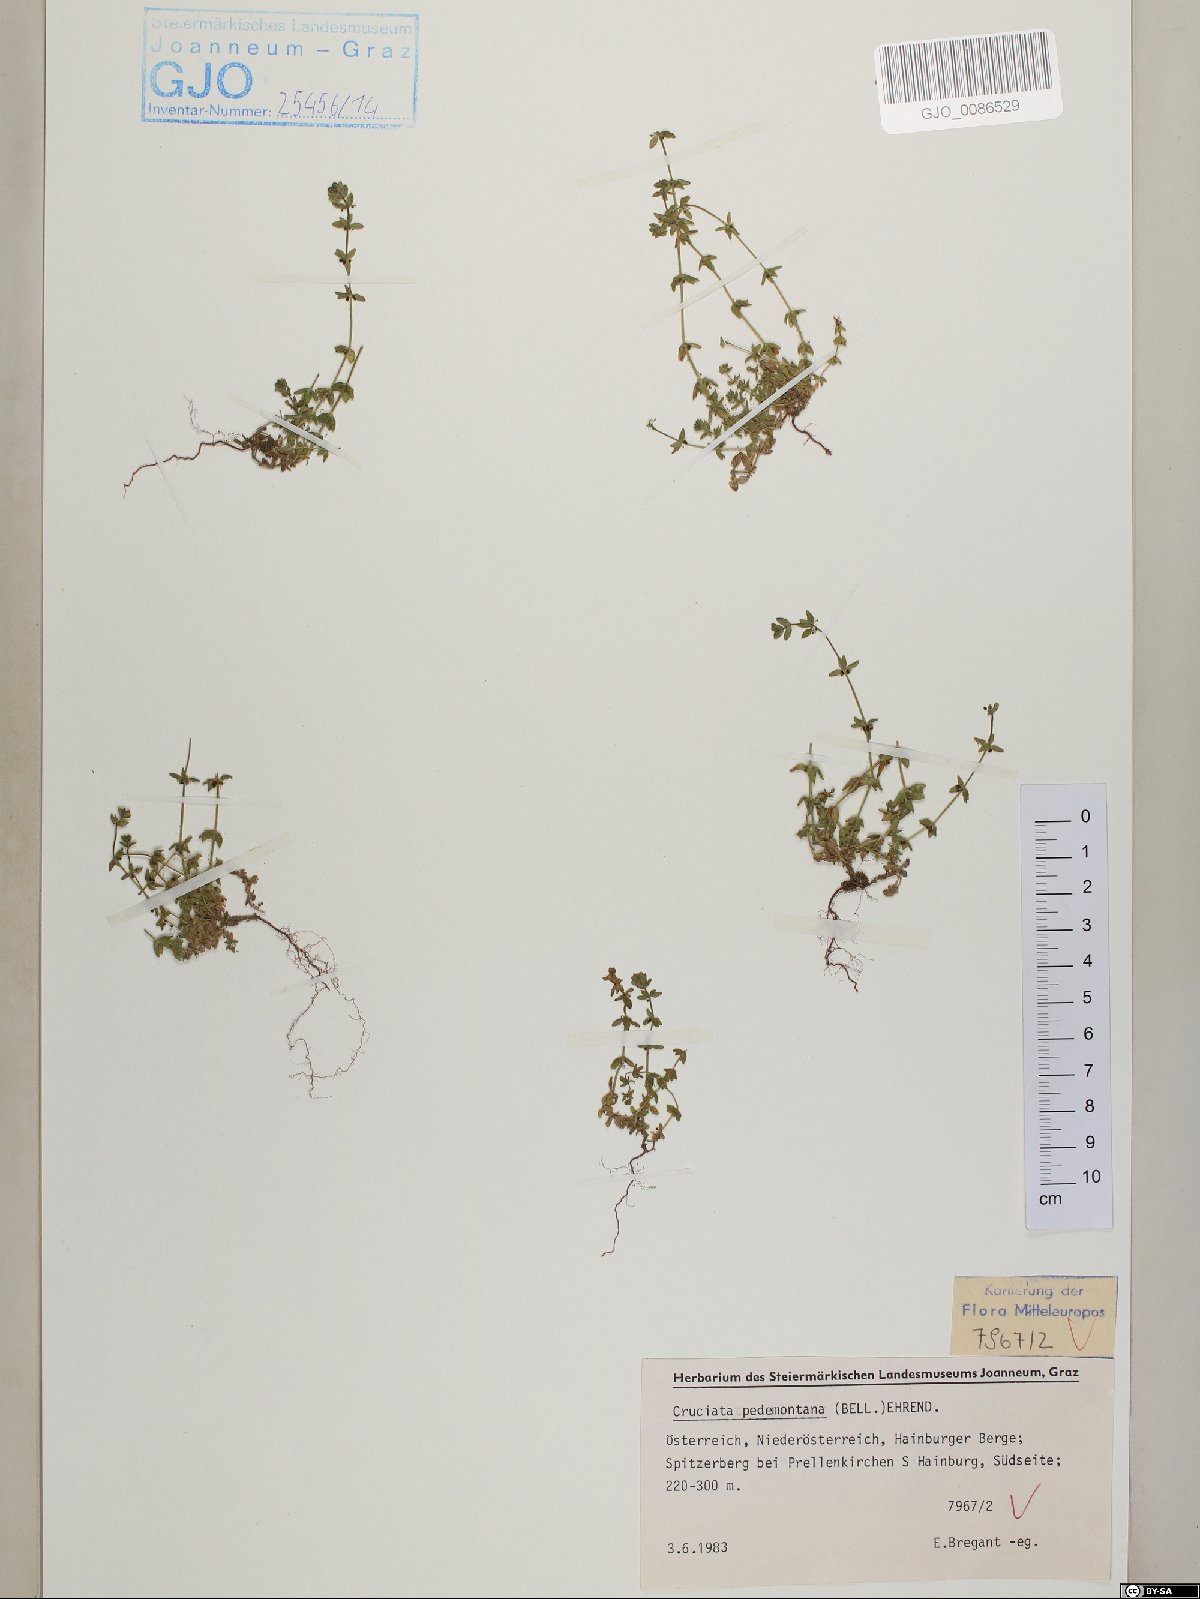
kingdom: Plantae
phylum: Tracheophyta
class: Magnoliopsida
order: Gentianales
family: Rubiaceae
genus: Cruciata
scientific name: Cruciata pedemontana
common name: Piedmont bedstraw
